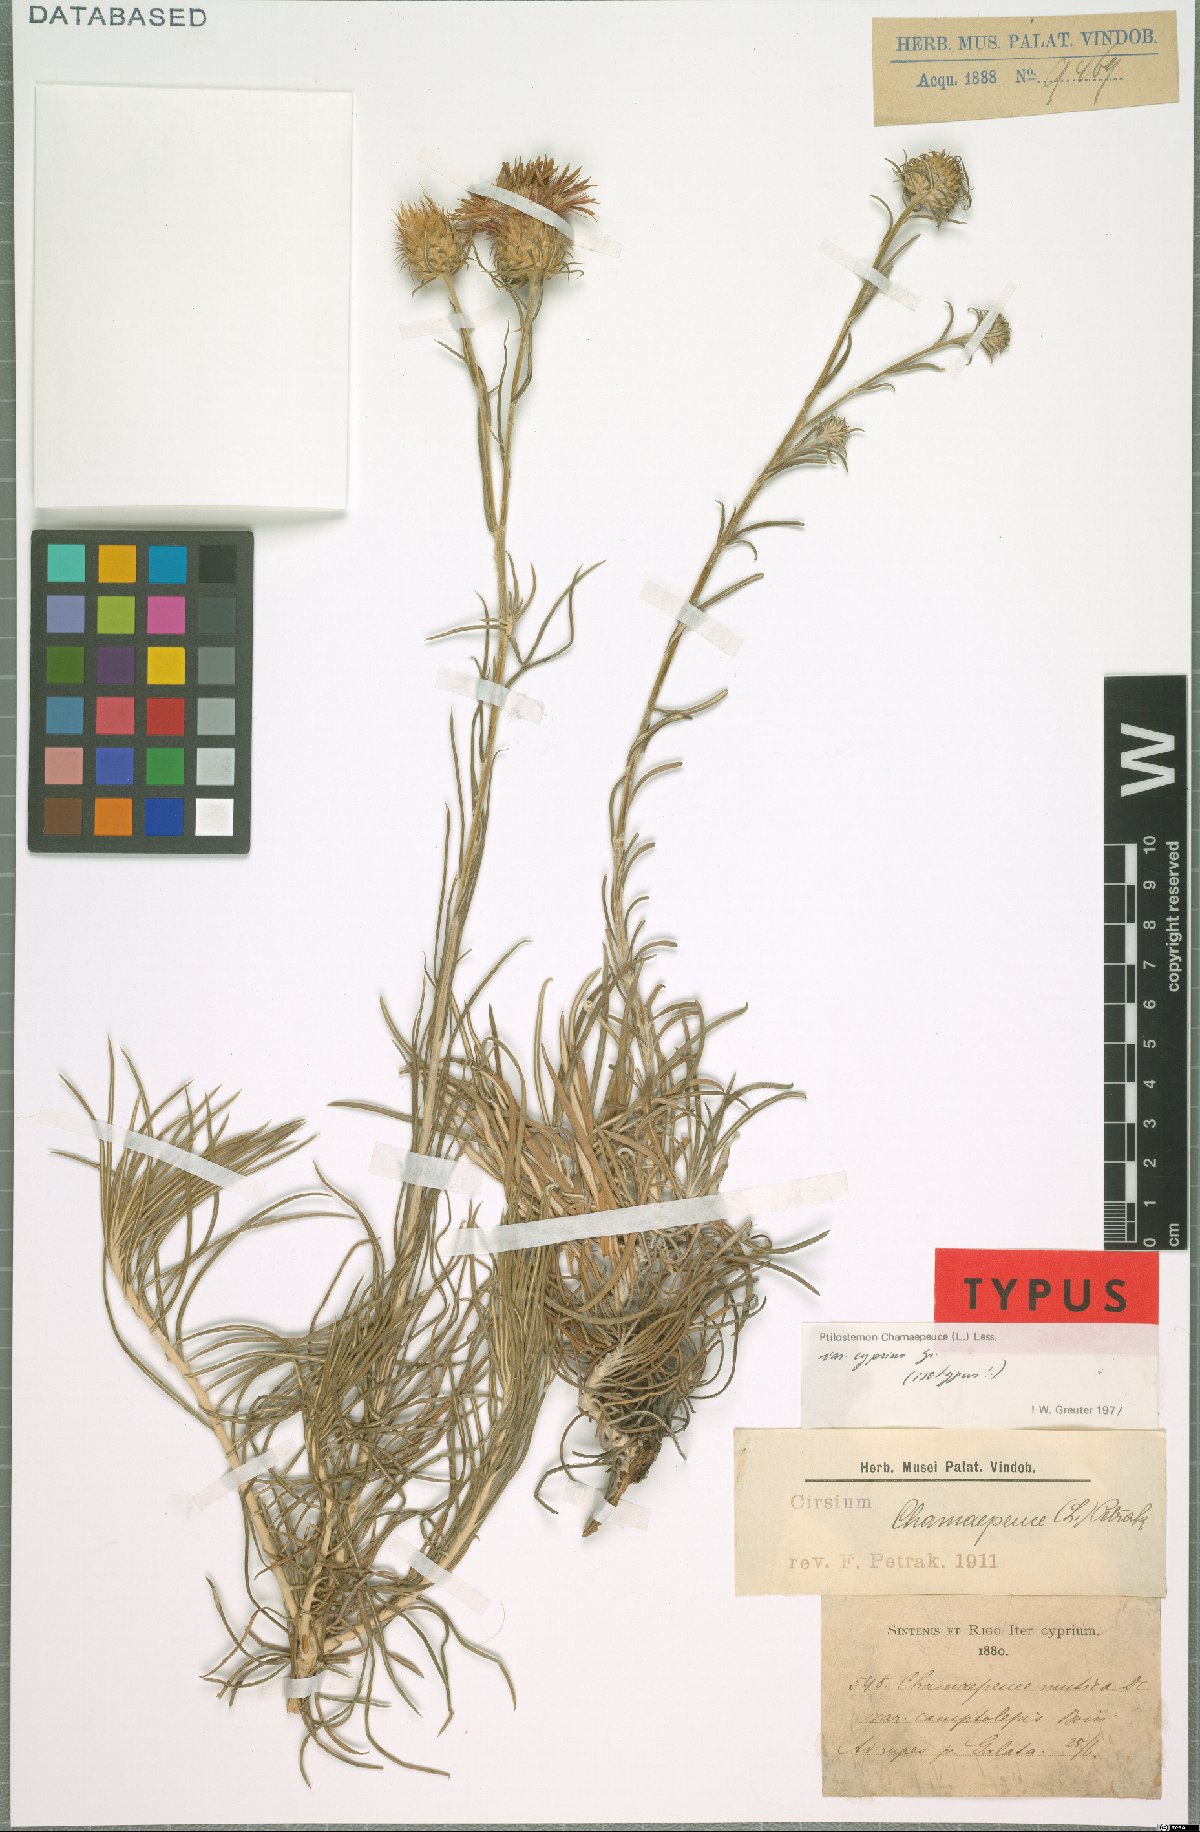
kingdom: Plantae
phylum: Tracheophyta
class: Magnoliopsida
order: Asterales
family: Asteraceae
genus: Ptilostemon
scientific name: Ptilostemon chamaepeuce
